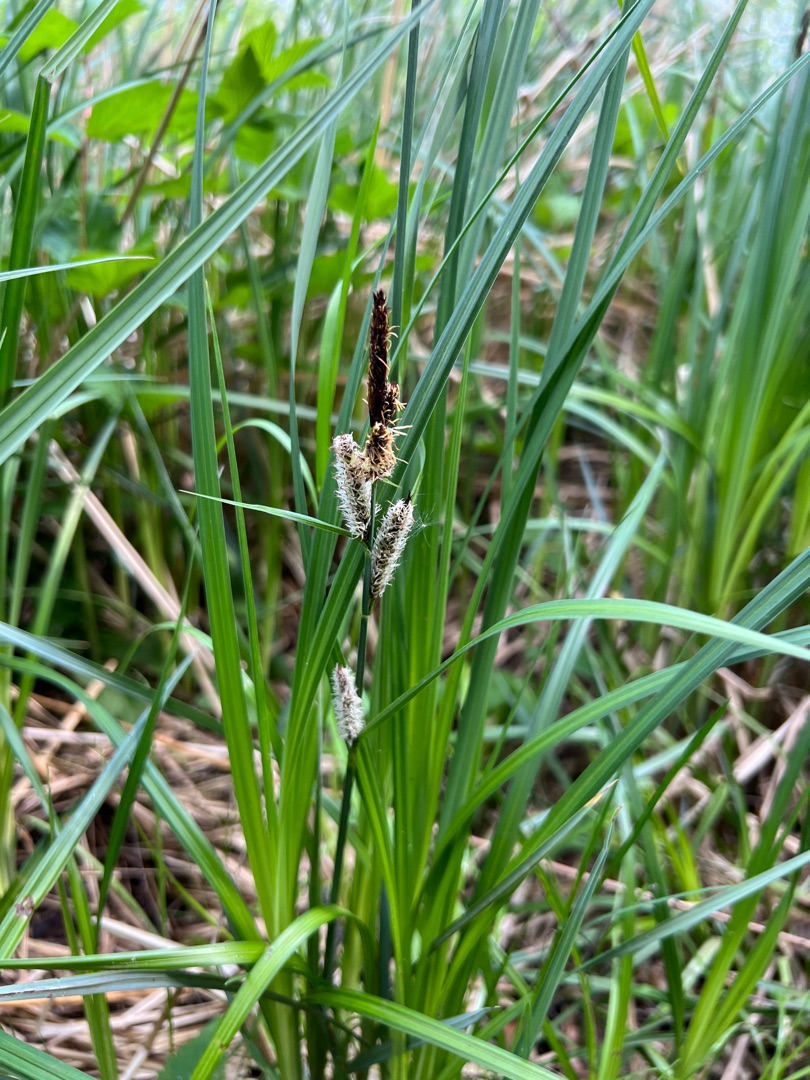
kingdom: Plantae
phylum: Tracheophyta
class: Liliopsida
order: Poales
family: Cyperaceae
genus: Carex
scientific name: Carex acutiformis
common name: Kær-star
